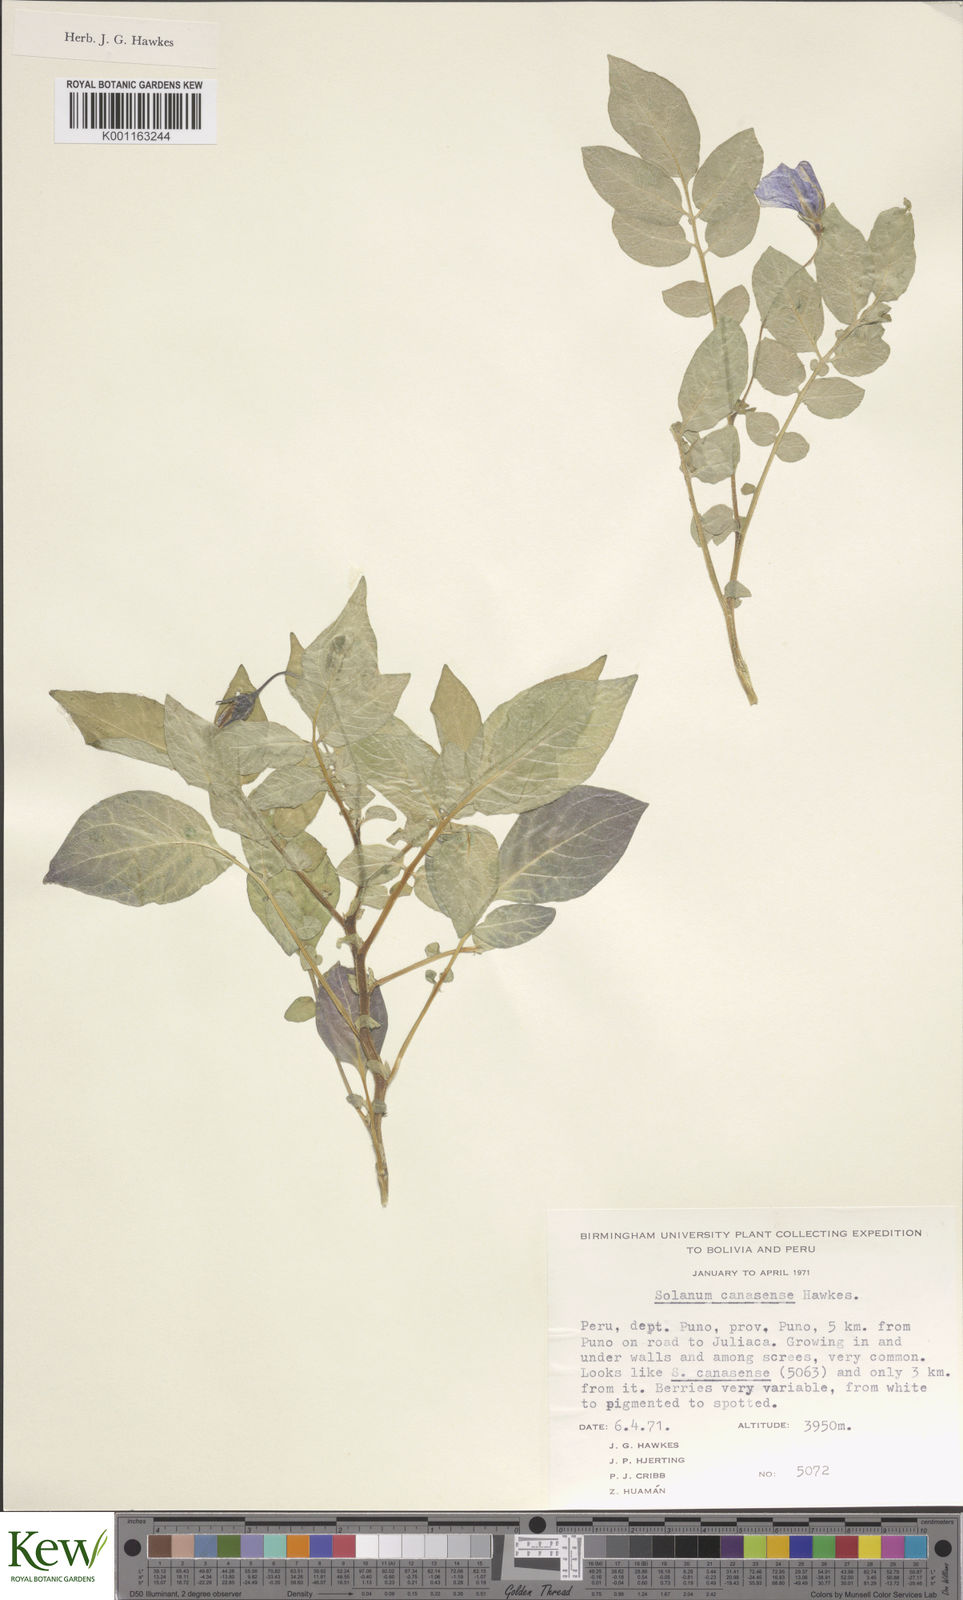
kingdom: Plantae
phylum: Tracheophyta
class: Magnoliopsida
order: Solanales
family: Solanaceae
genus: Solanum
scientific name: Solanum candolleanum
